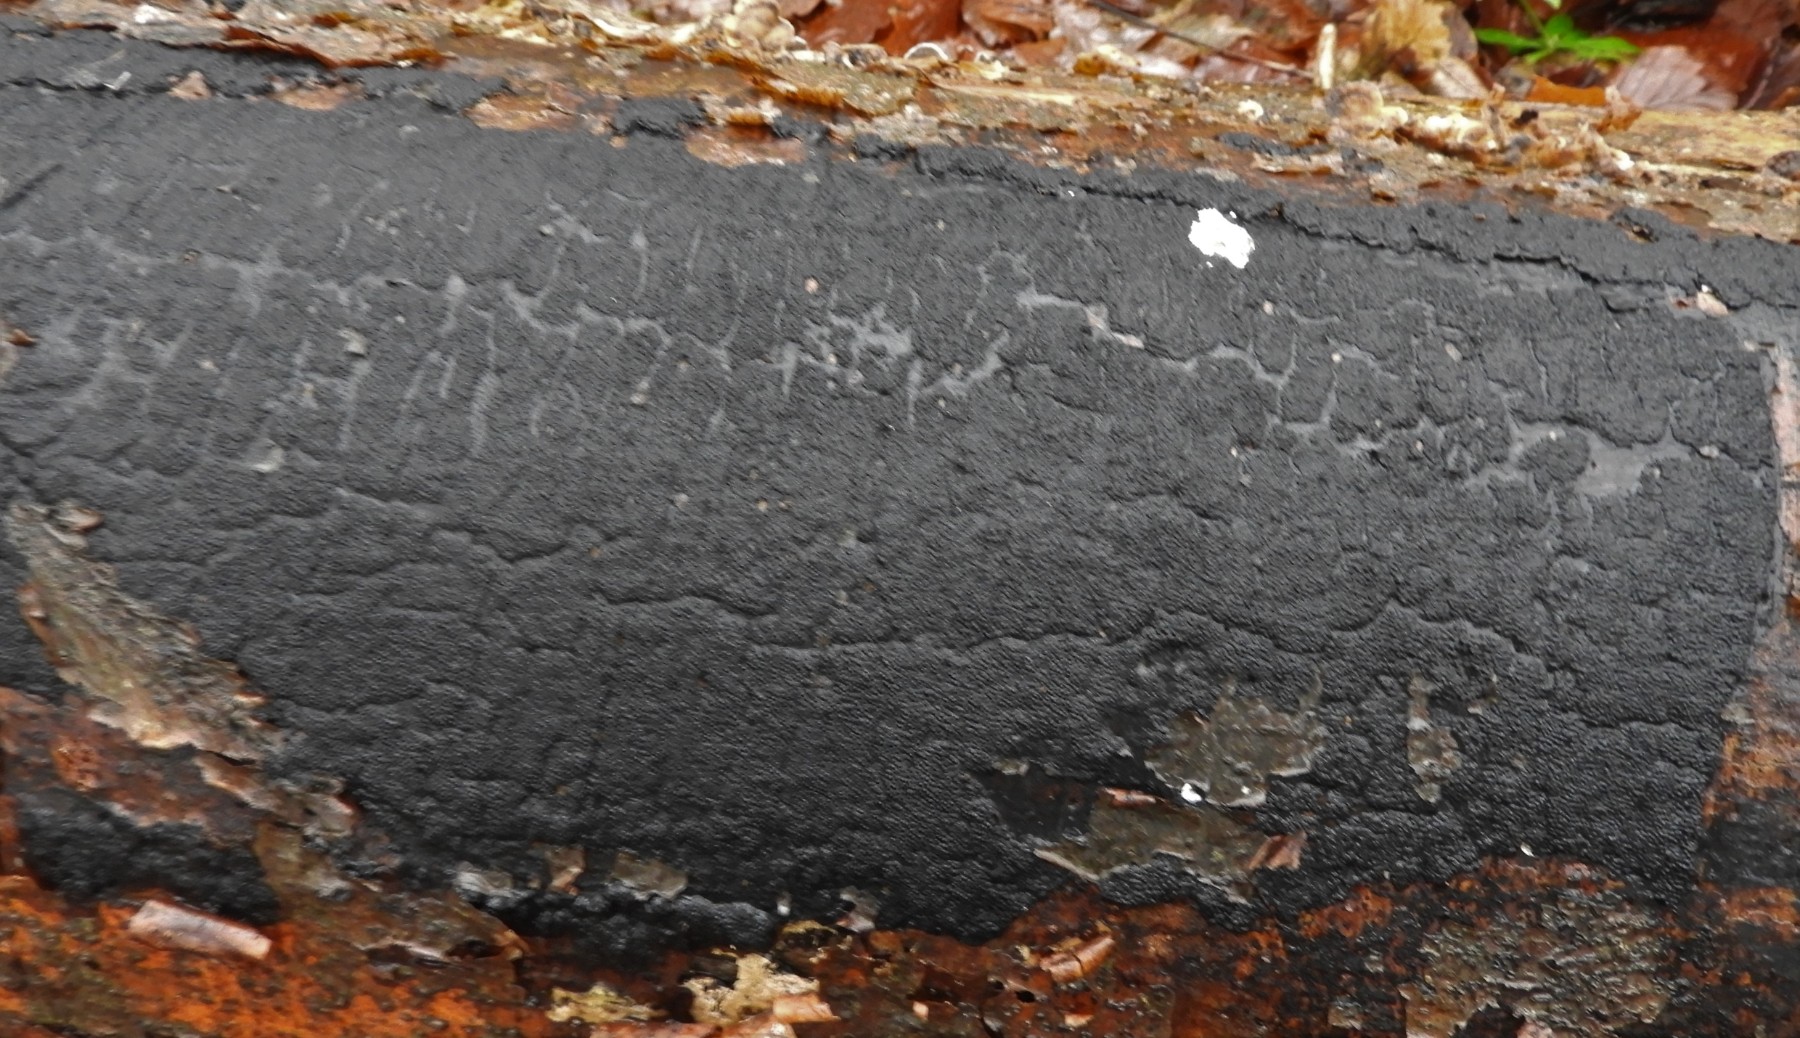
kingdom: Fungi
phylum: Ascomycota
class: Sordariomycetes
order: Xylariales
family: Diatrypaceae
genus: Eutypa
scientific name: Eutypa spinosa
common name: grov kulskorpe
